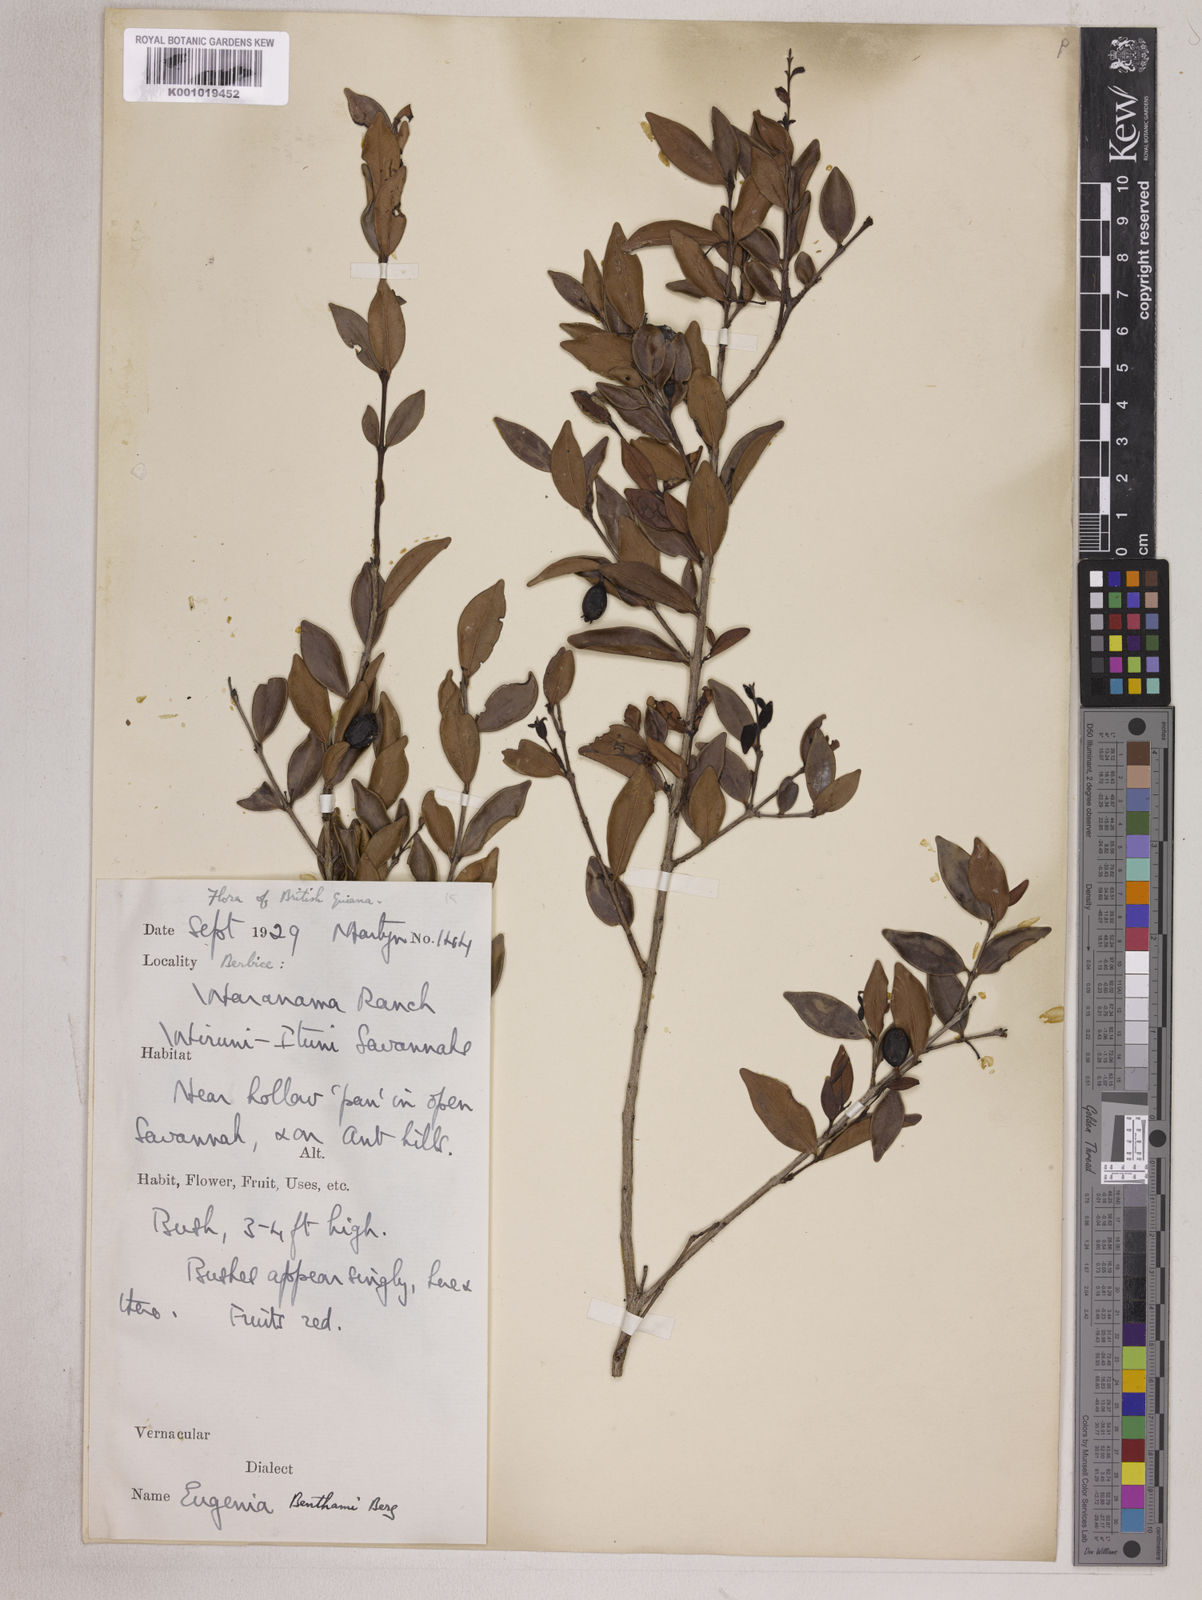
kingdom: Plantae
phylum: Tracheophyta
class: Magnoliopsida
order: Myrtales
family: Myrtaceae
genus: Eugenia
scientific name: Eugenia punicifolia
